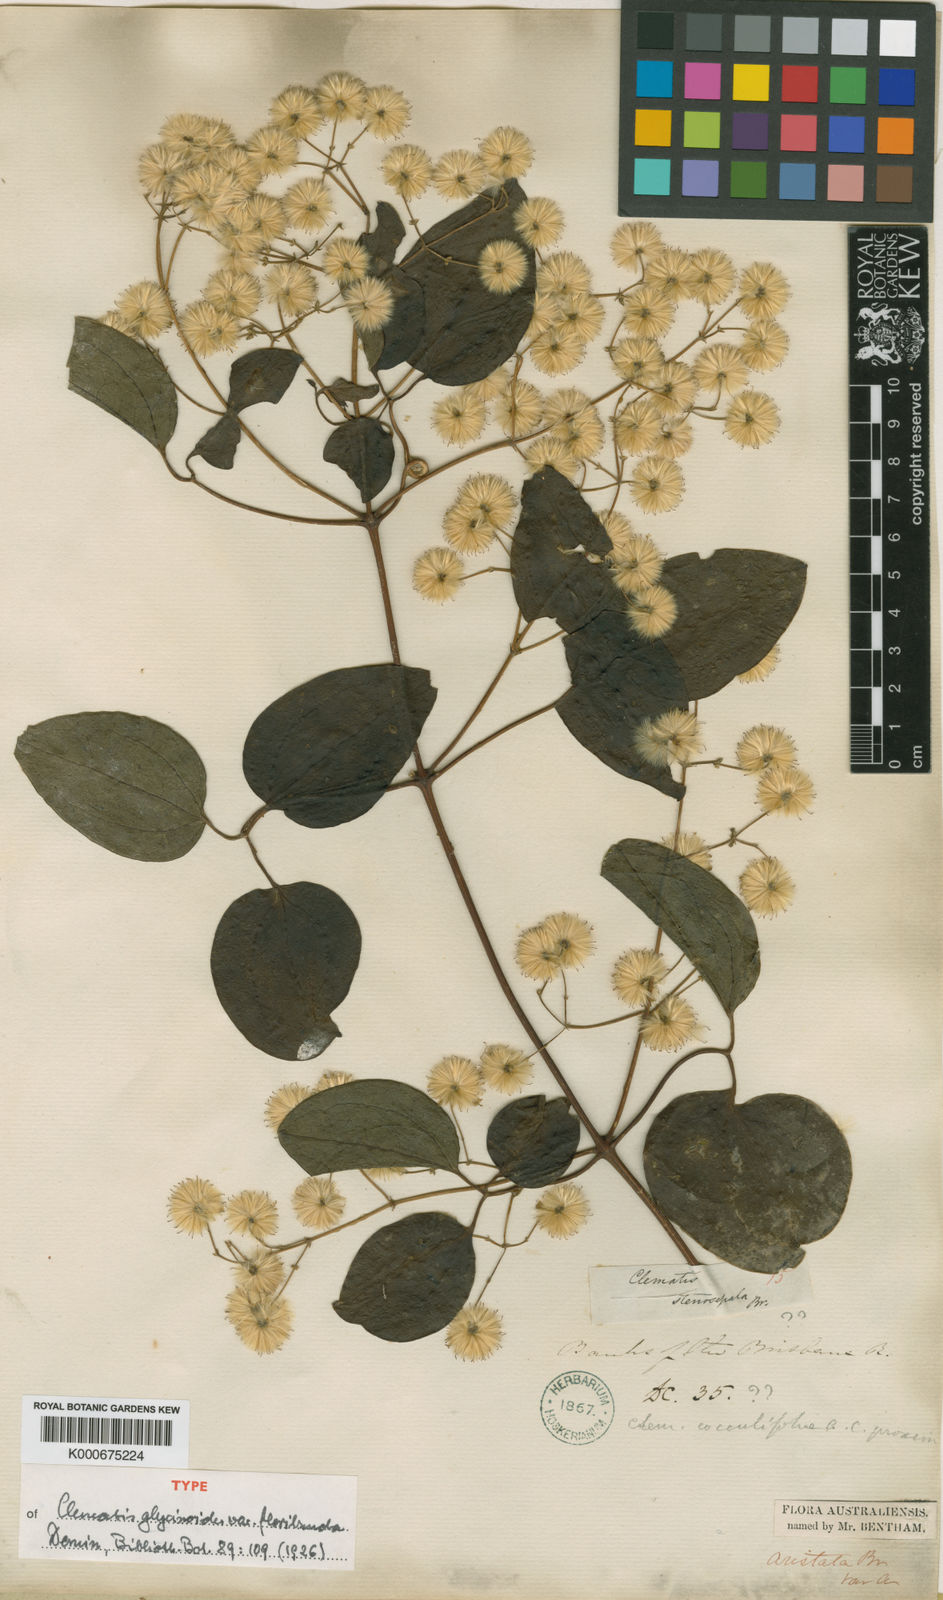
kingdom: Plantae
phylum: Tracheophyta
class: Magnoliopsida
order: Ranunculales
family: Ranunculaceae
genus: Clematis
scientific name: Clematis glycinoides
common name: Forest clematis
